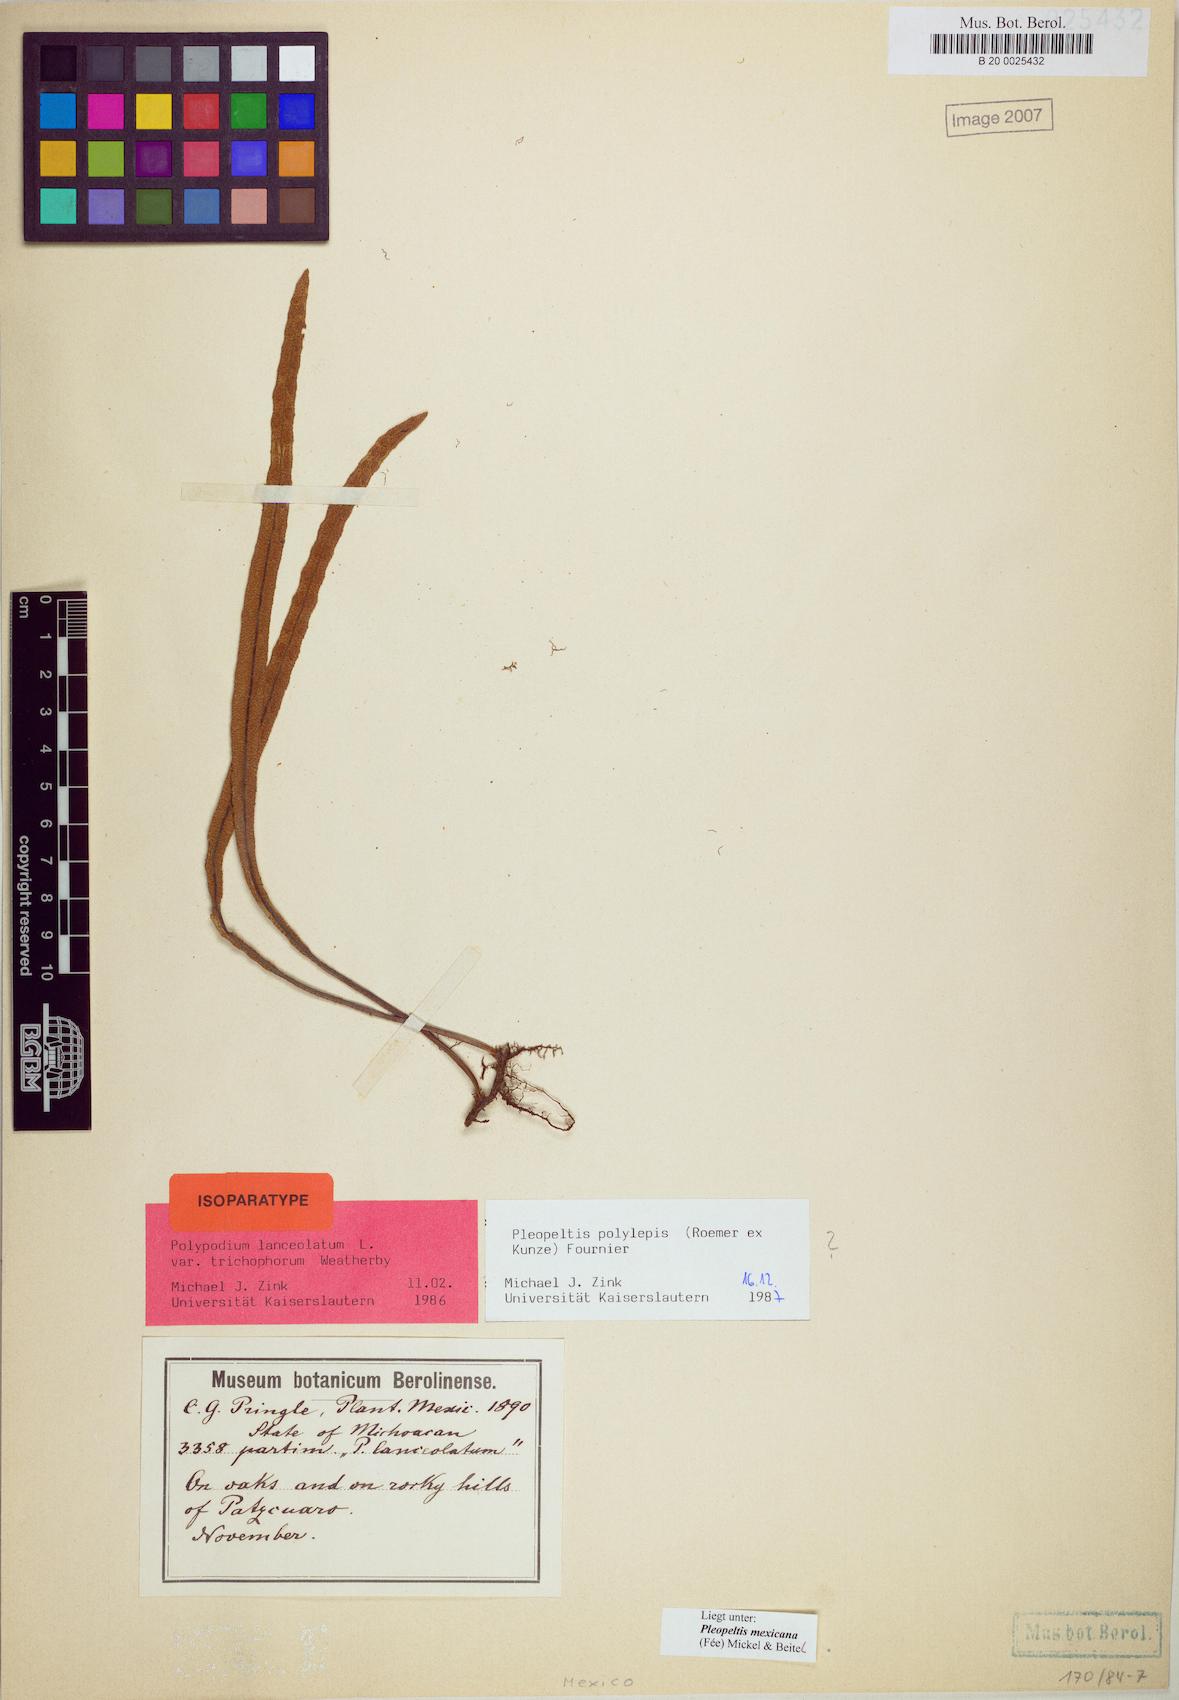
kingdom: Plantae
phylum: Tracheophyta
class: Polypodiopsida
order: Polypodiales
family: Polypodiaceae
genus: Pleopeltis
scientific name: Pleopeltis mexicana
